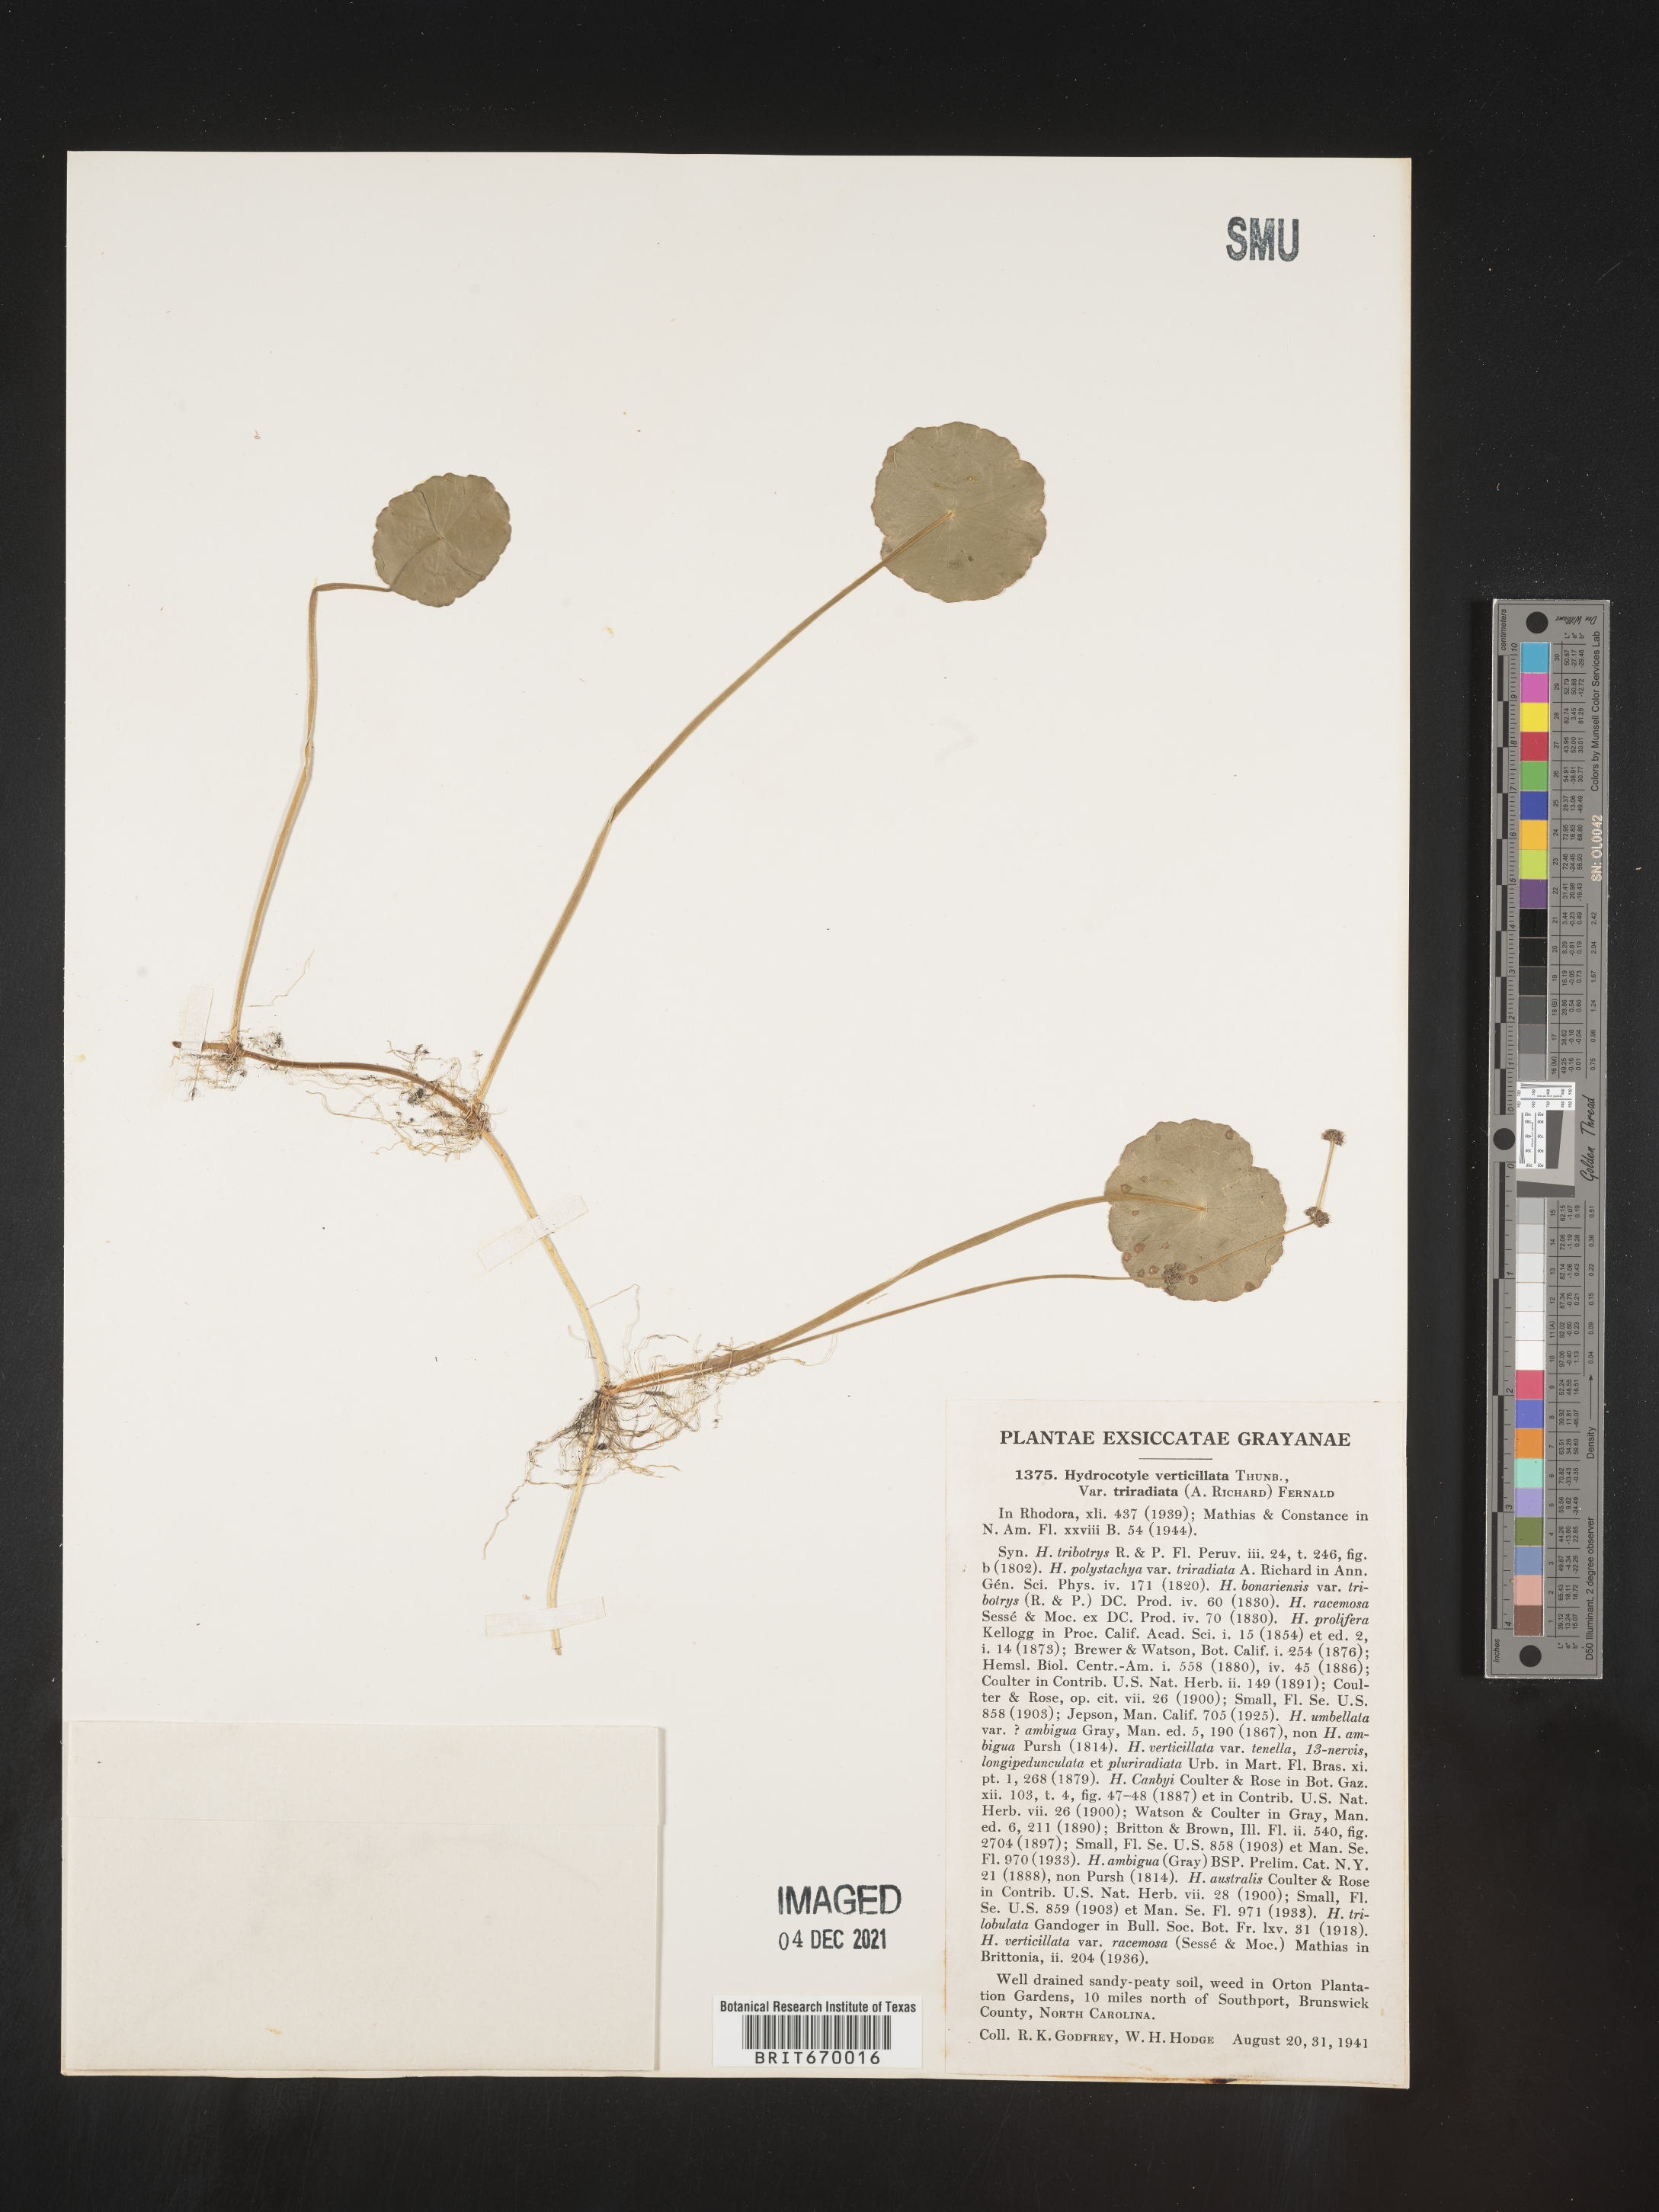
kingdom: Plantae
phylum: Tracheophyta
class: Magnoliopsida
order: Apiales
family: Araliaceae
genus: Hydrocotyle
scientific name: Hydrocotyle verticillata
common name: Whorled marshpennywort
